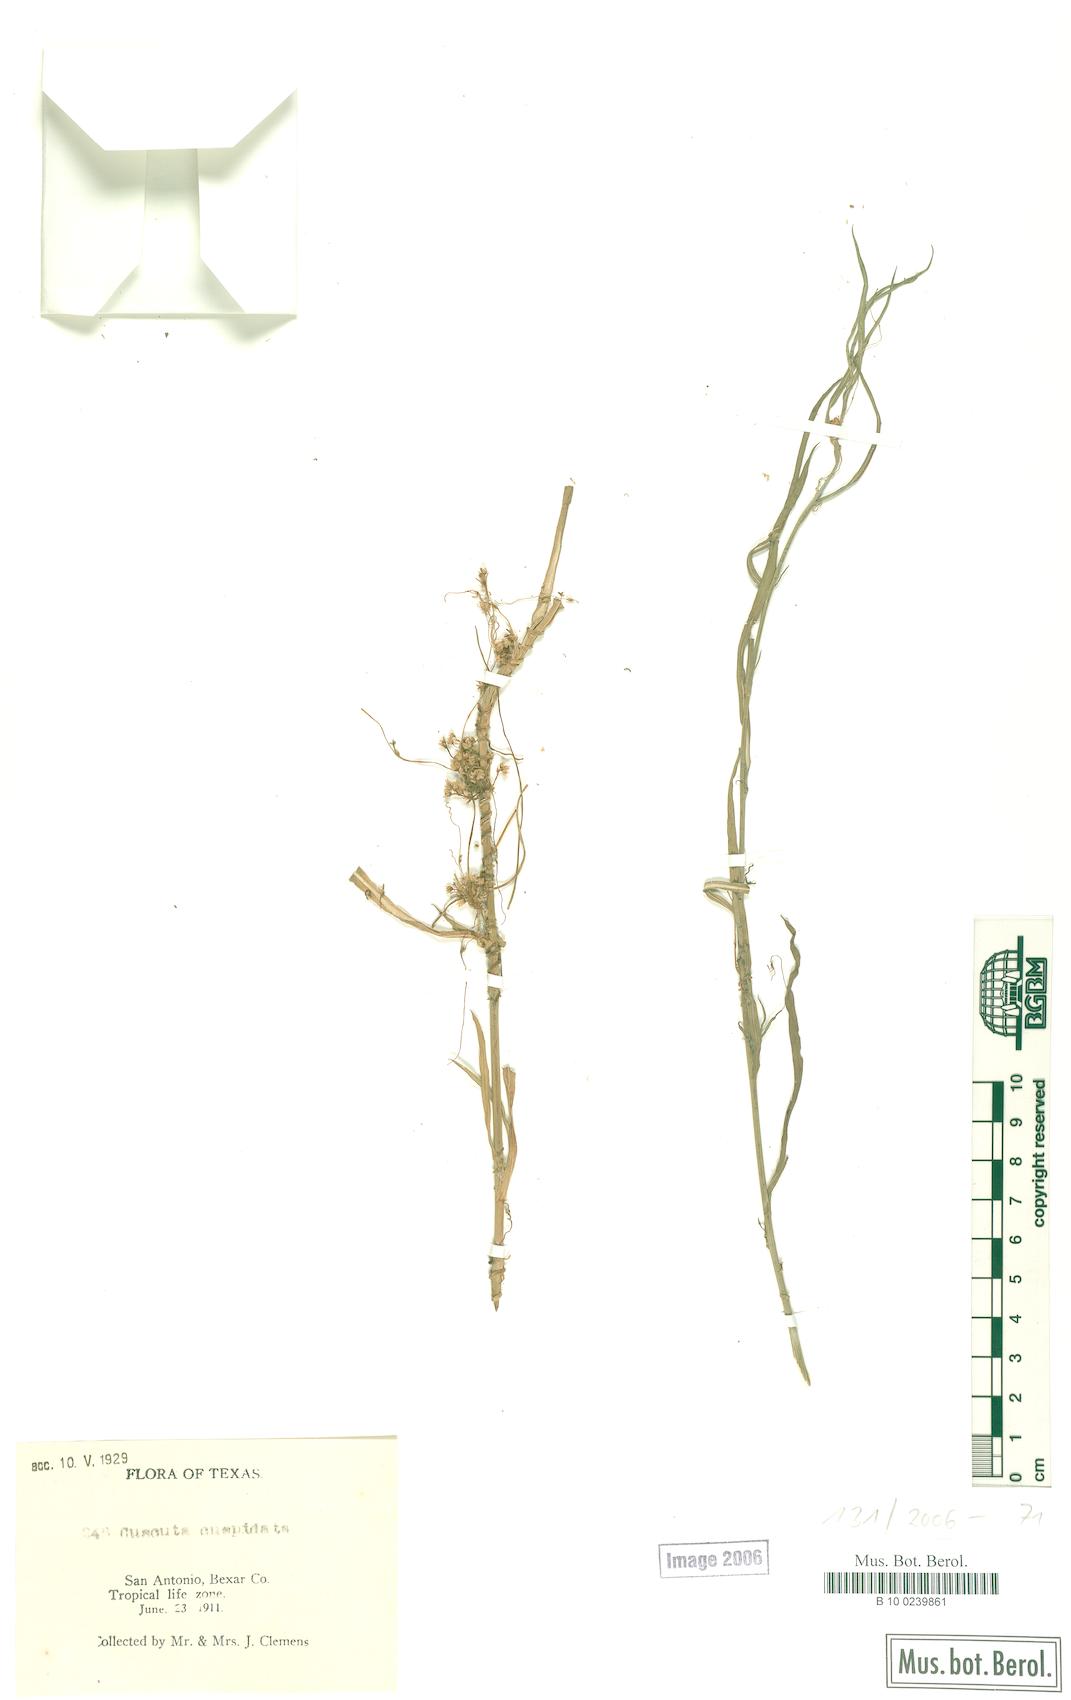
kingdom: Plantae
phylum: Tracheophyta
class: Magnoliopsida
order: Solanales
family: Convolvulaceae
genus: Cuscuta
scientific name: Cuscuta cuspidata
